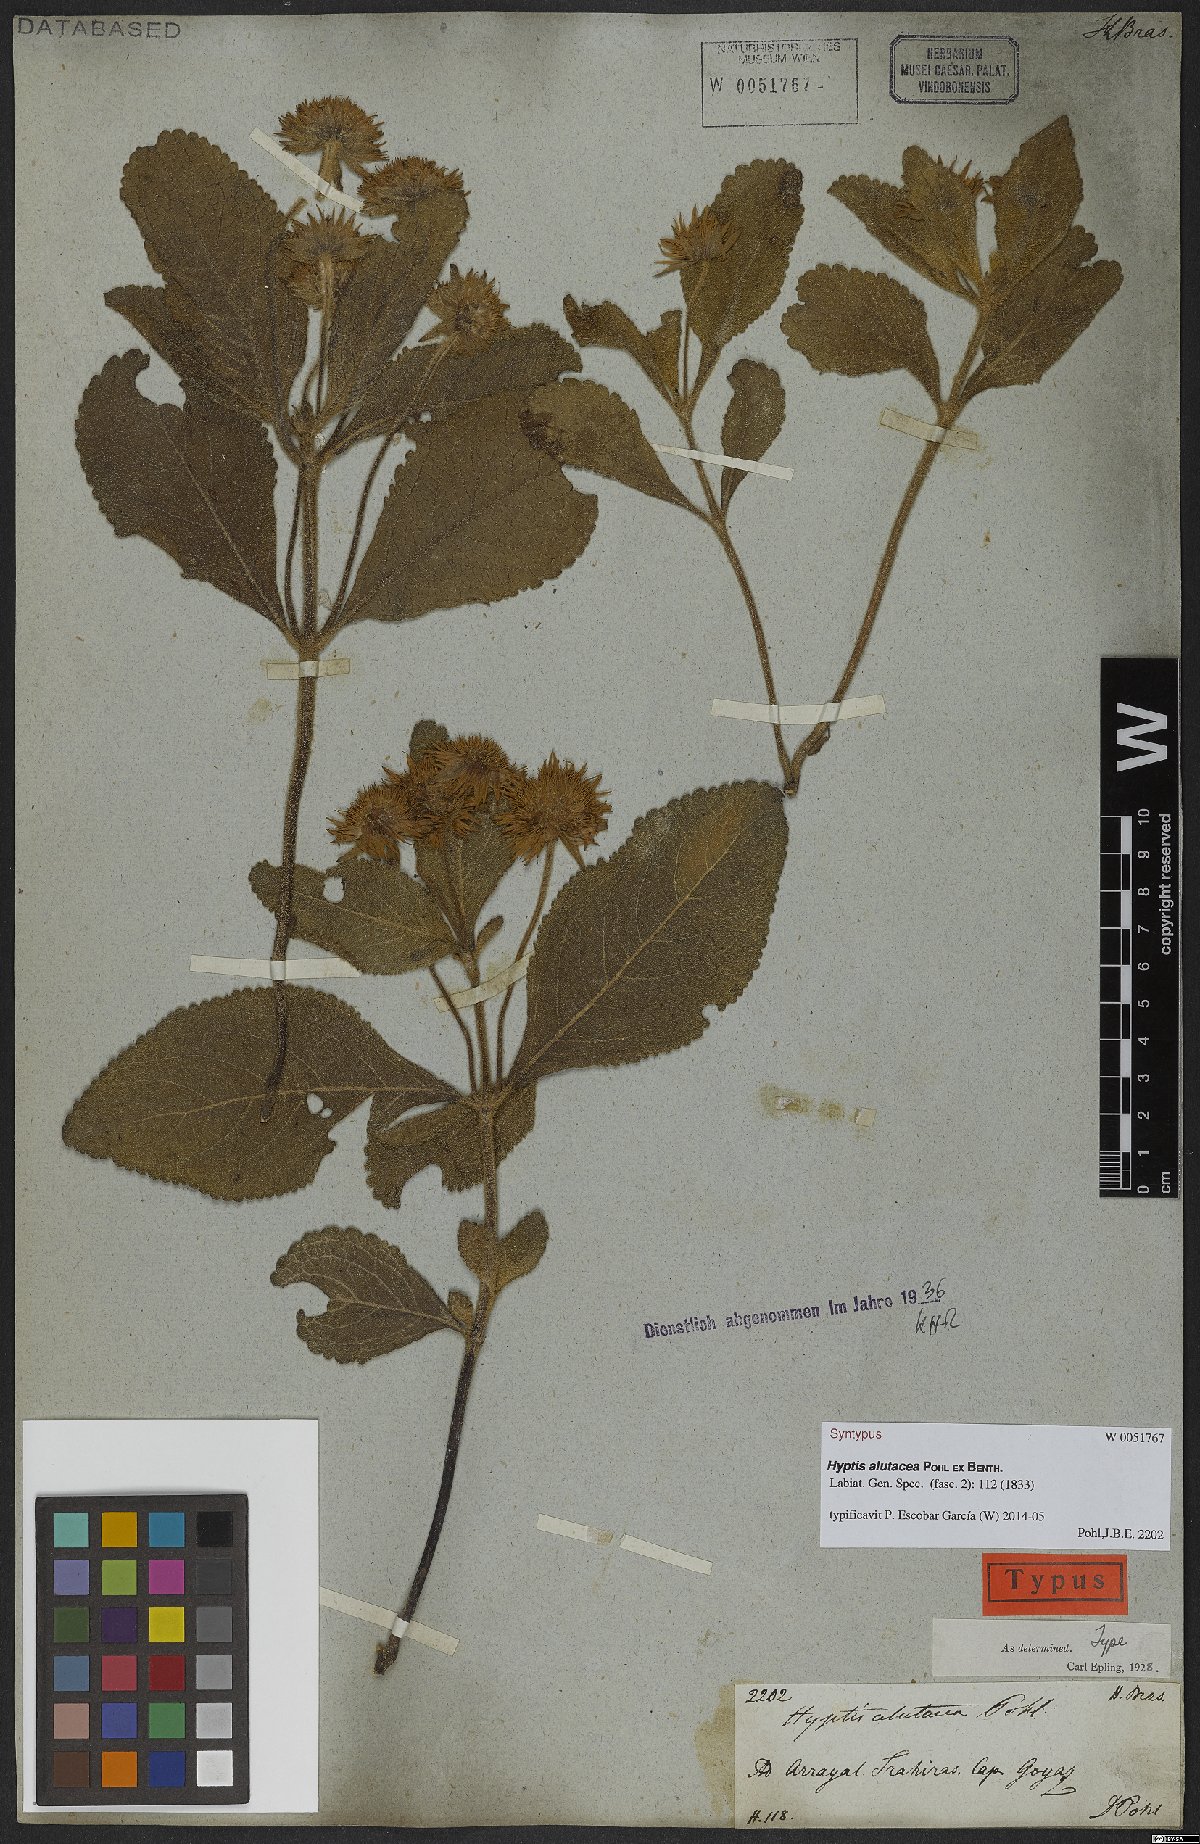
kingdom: Plantae
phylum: Tracheophyta
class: Magnoliopsida
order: Lamiales
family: Lamiaceae
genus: Hyptis
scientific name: Hyptis alutacea
